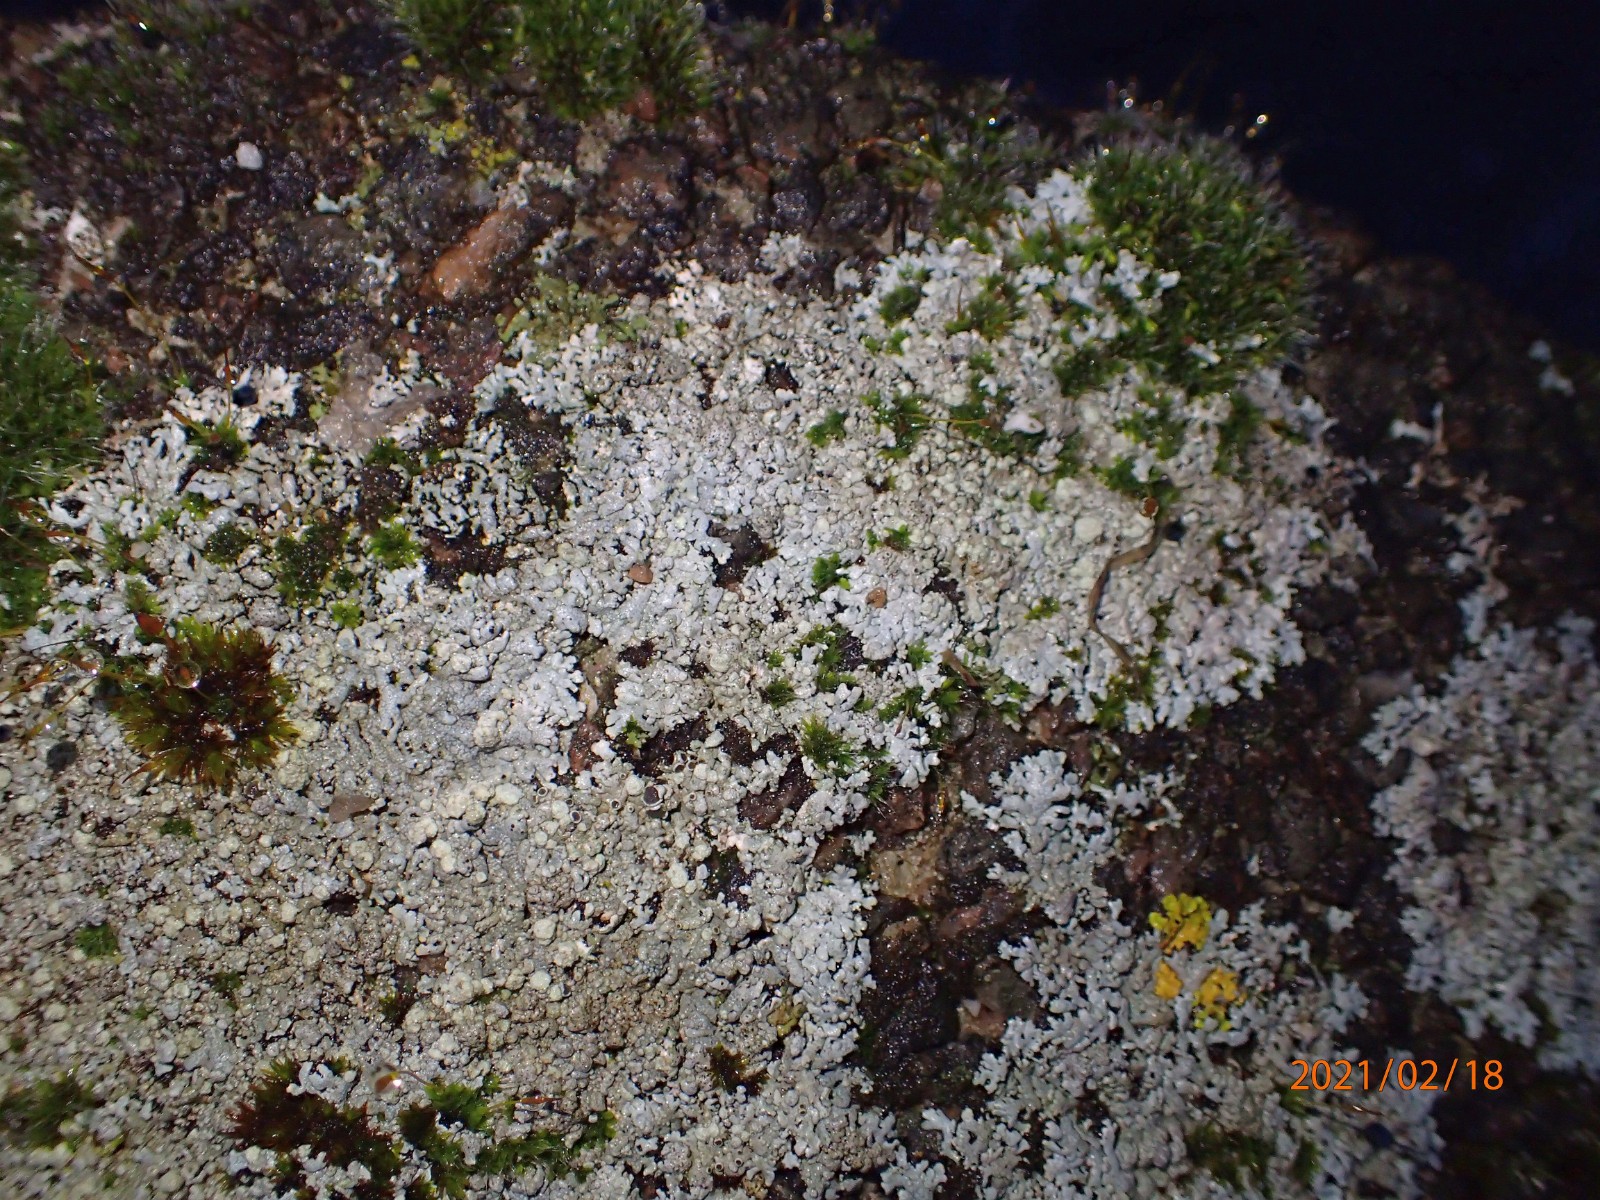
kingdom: Fungi
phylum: Ascomycota
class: Lecanoromycetes
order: Caliciales
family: Physciaceae
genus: Physcia
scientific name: Physcia caesia
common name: blågrå rosetlav
